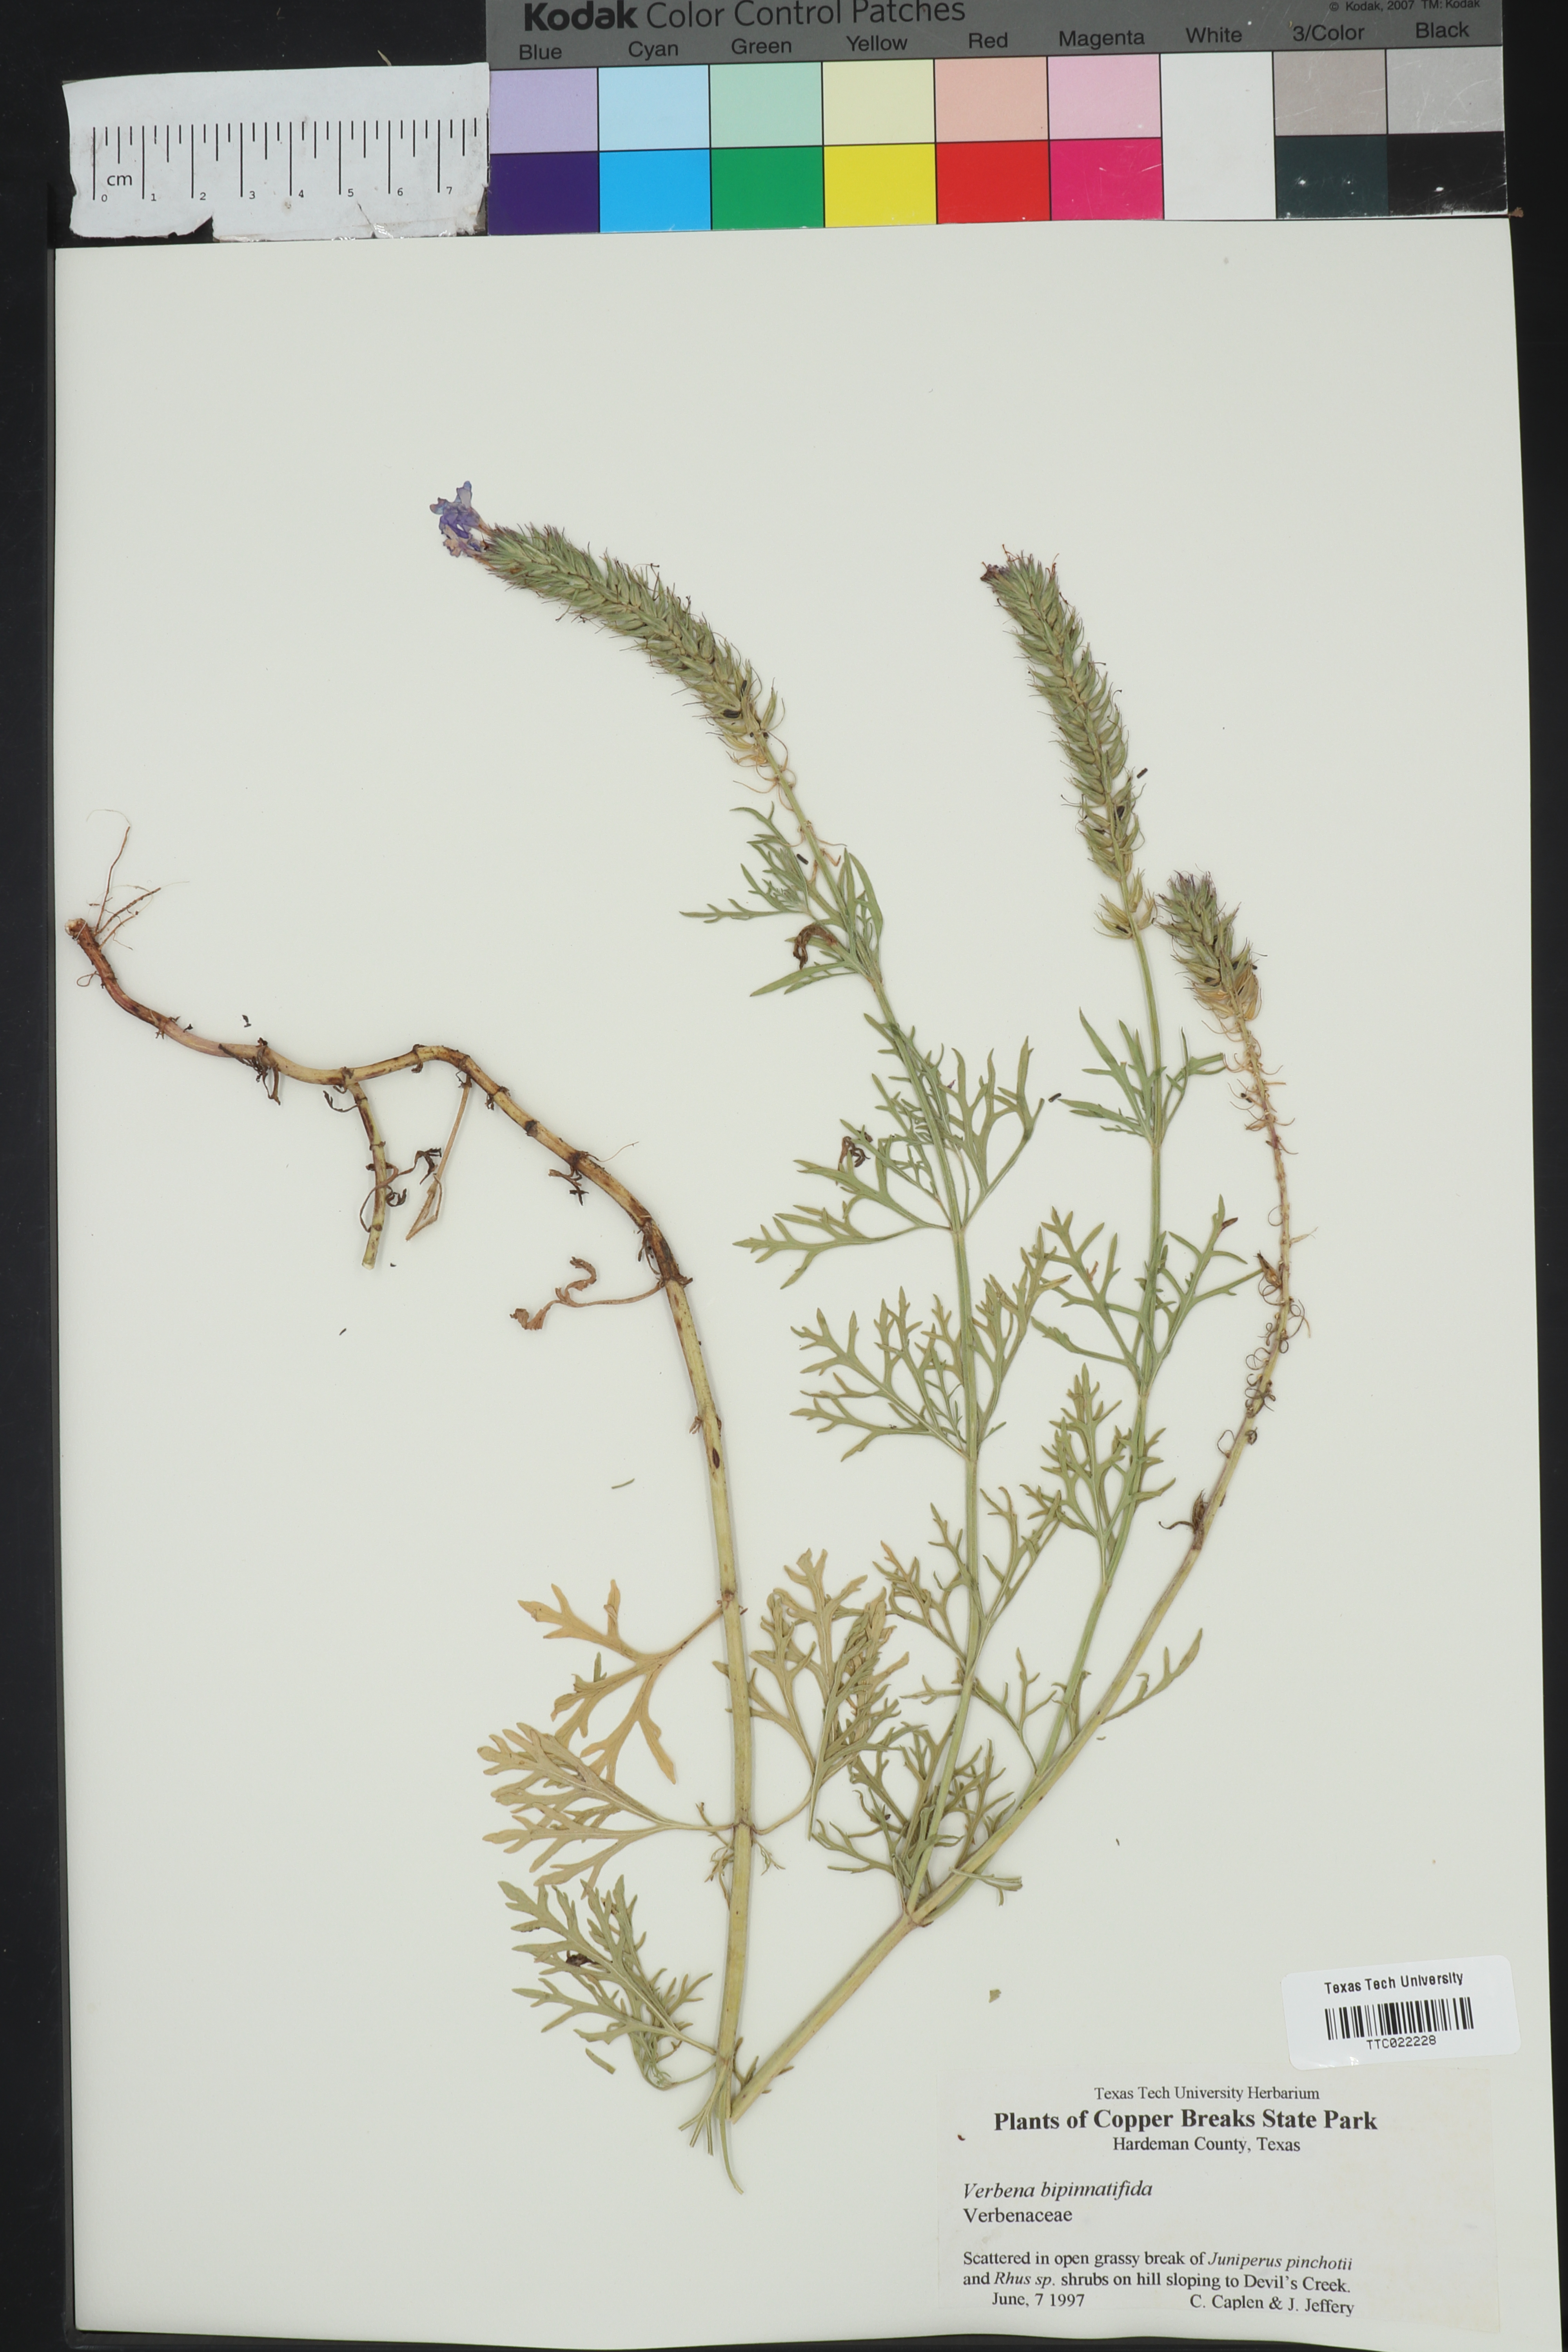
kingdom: Plantae
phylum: Tracheophyta
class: Magnoliopsida
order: Lamiales
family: Verbenaceae
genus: Verbena
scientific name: Verbena bipinnatifida
